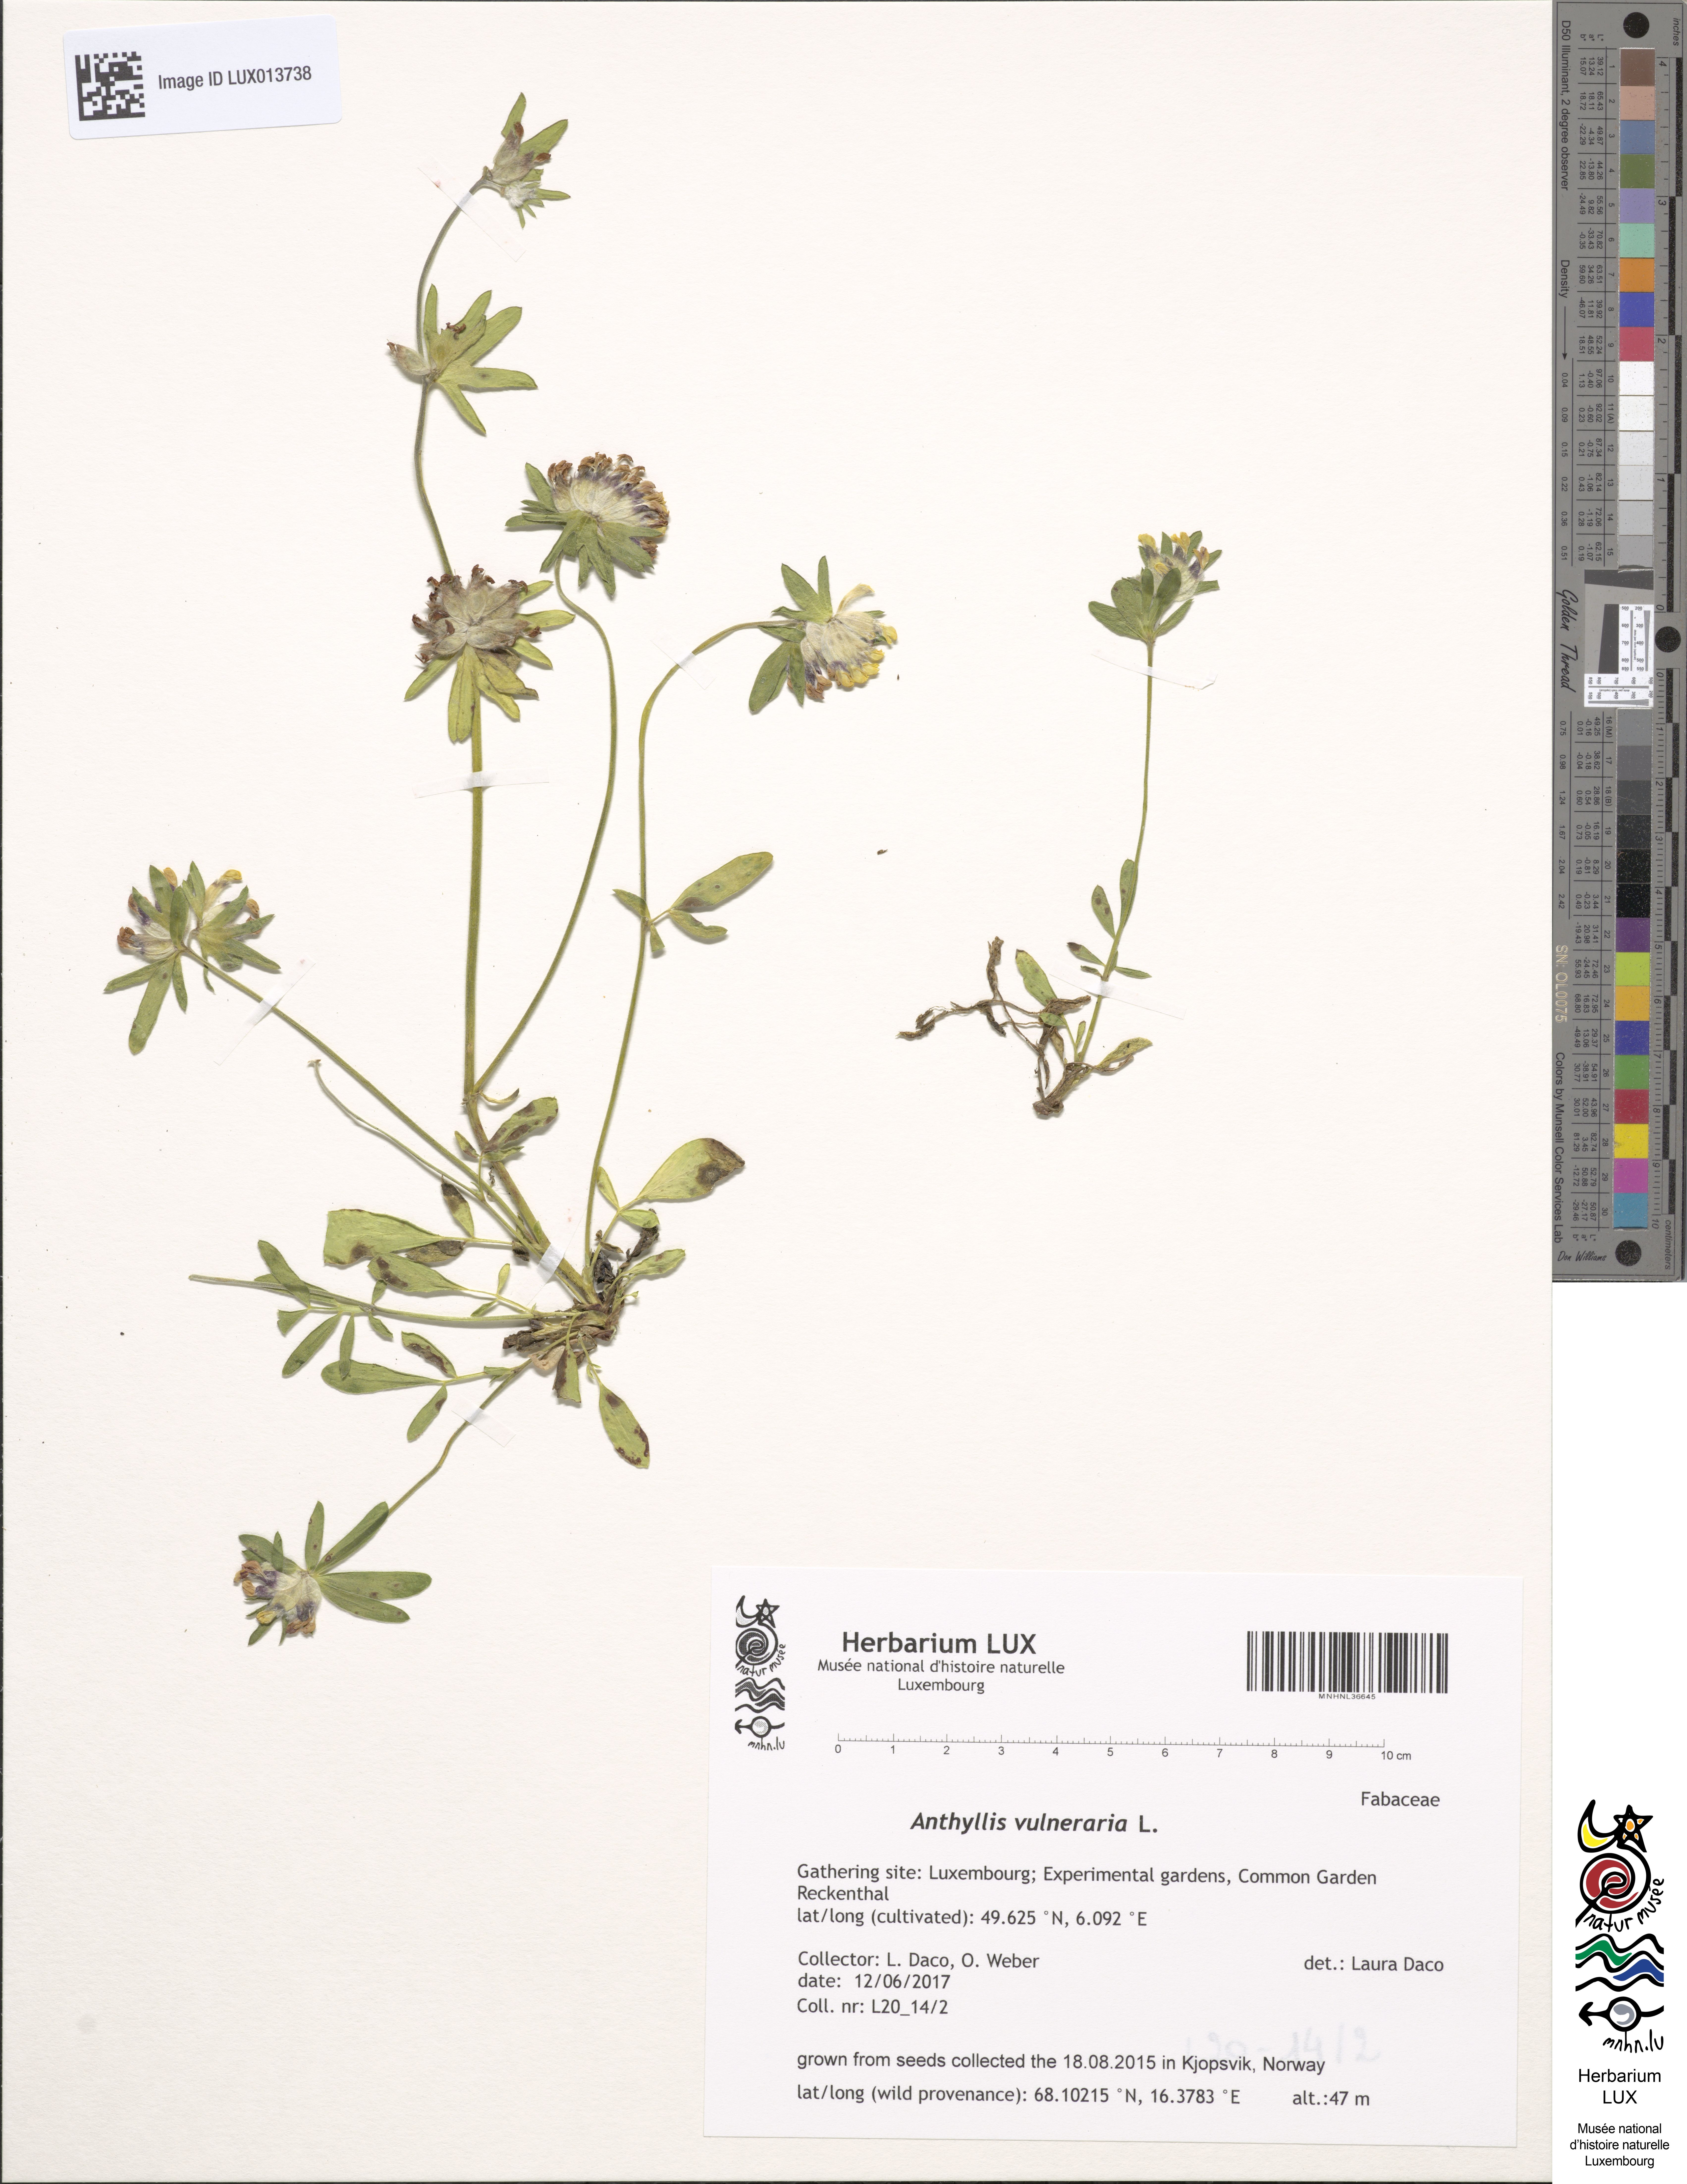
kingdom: Plantae
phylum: Tracheophyta
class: Magnoliopsida
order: Fabales
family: Fabaceae
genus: Anthyllis
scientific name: Anthyllis vulneraria
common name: Kidney vetch
